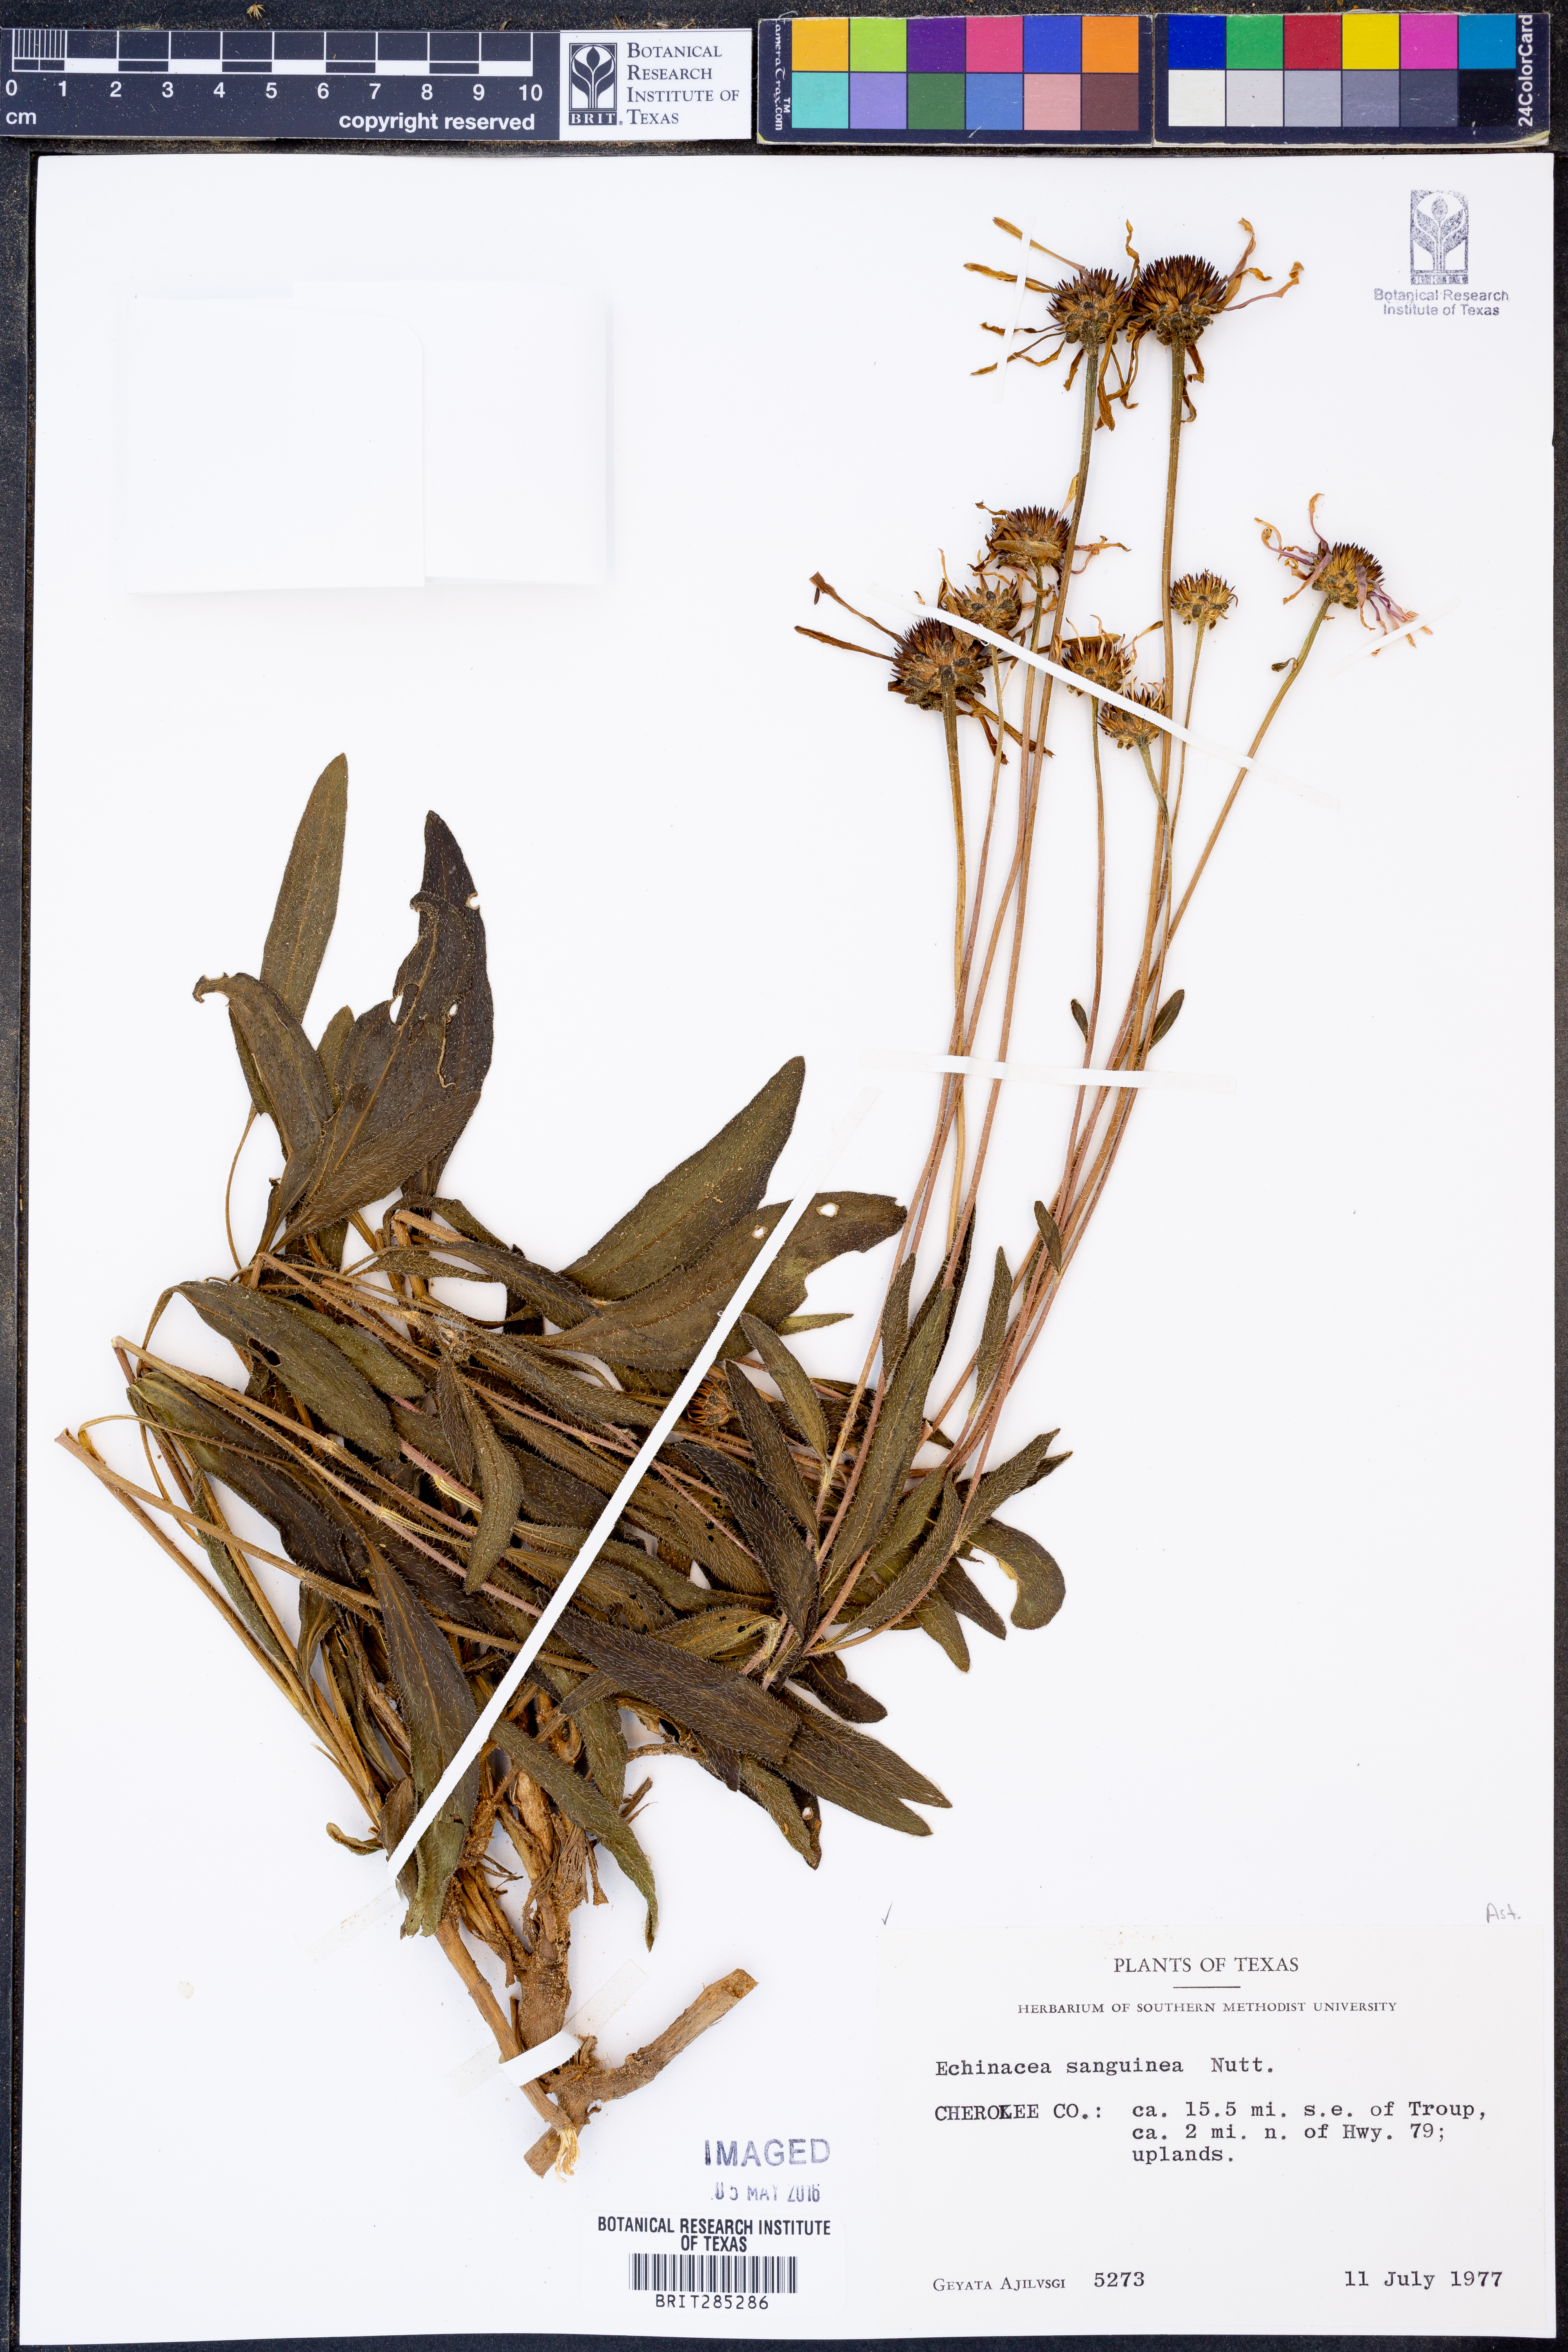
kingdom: Plantae
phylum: Tracheophyta
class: Magnoliopsida
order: Asterales
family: Asteraceae
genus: Echinacea
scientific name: Echinacea sanguinea
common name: Sanguine purple-coneflower
